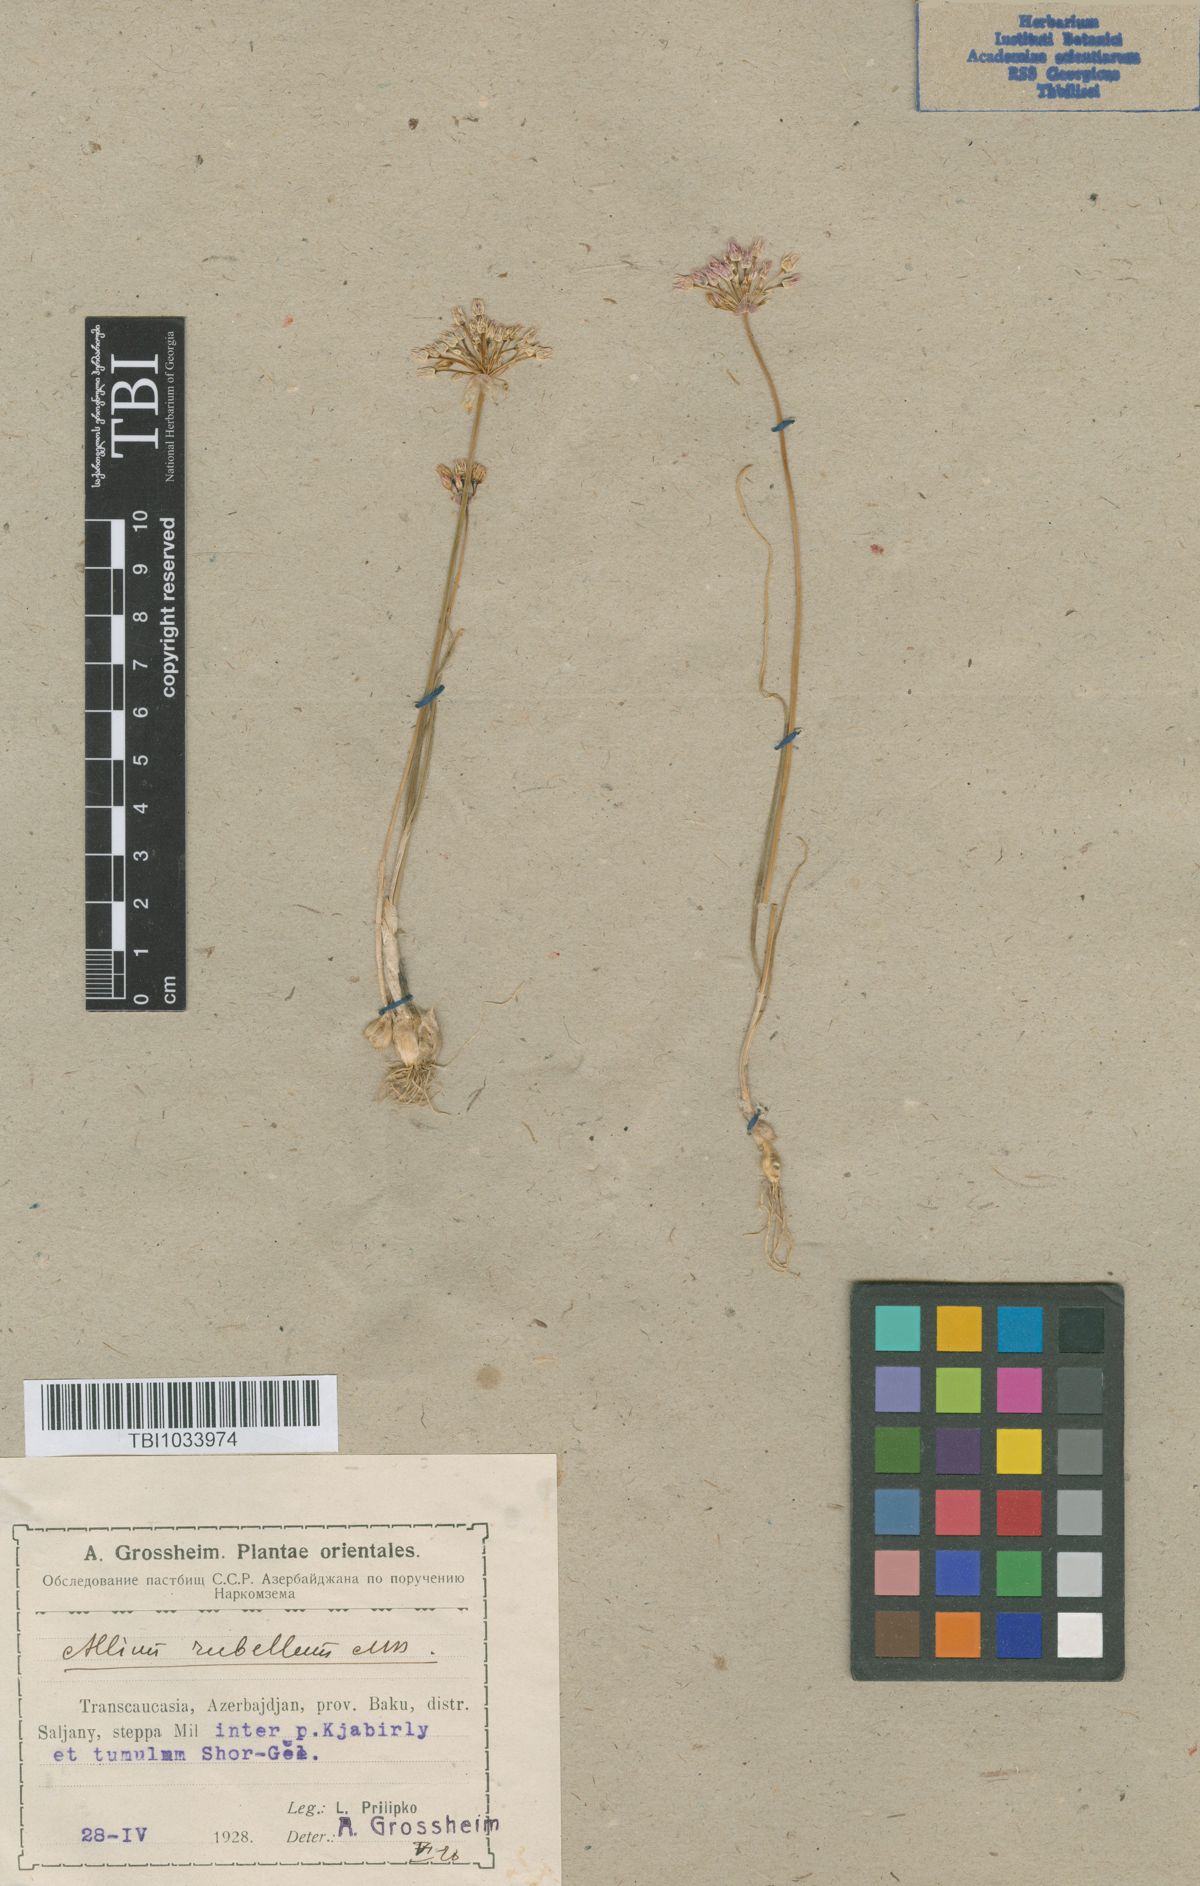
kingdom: Plantae
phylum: Tracheophyta
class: Liliopsida
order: Asparagales
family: Amaryllidaceae
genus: Allium
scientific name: Allium rubellum
